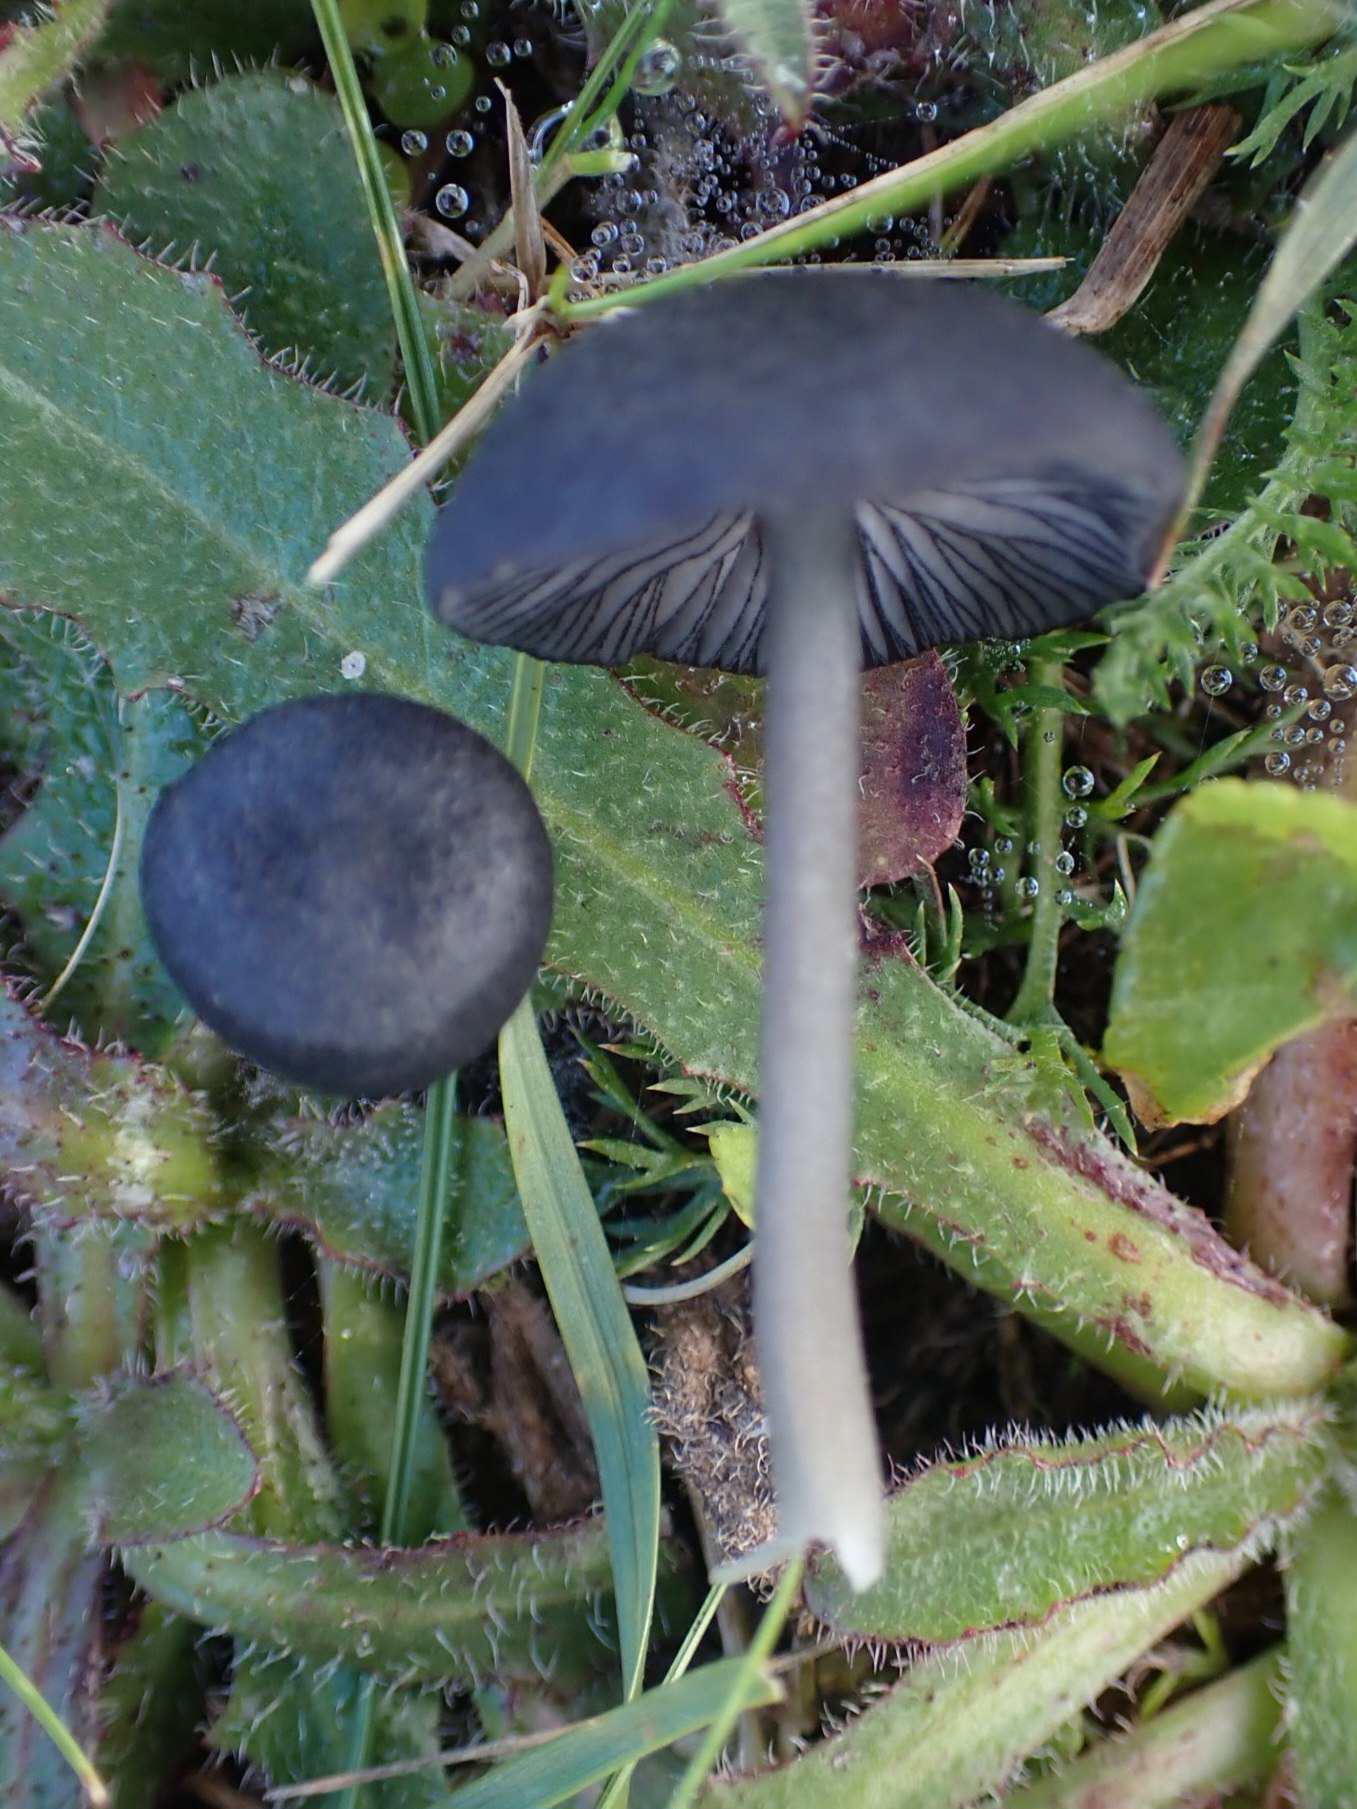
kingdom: Fungi
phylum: Basidiomycota
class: Agaricomycetes
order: Agaricales
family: Entolomataceae
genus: Entoloma
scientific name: Entoloma
